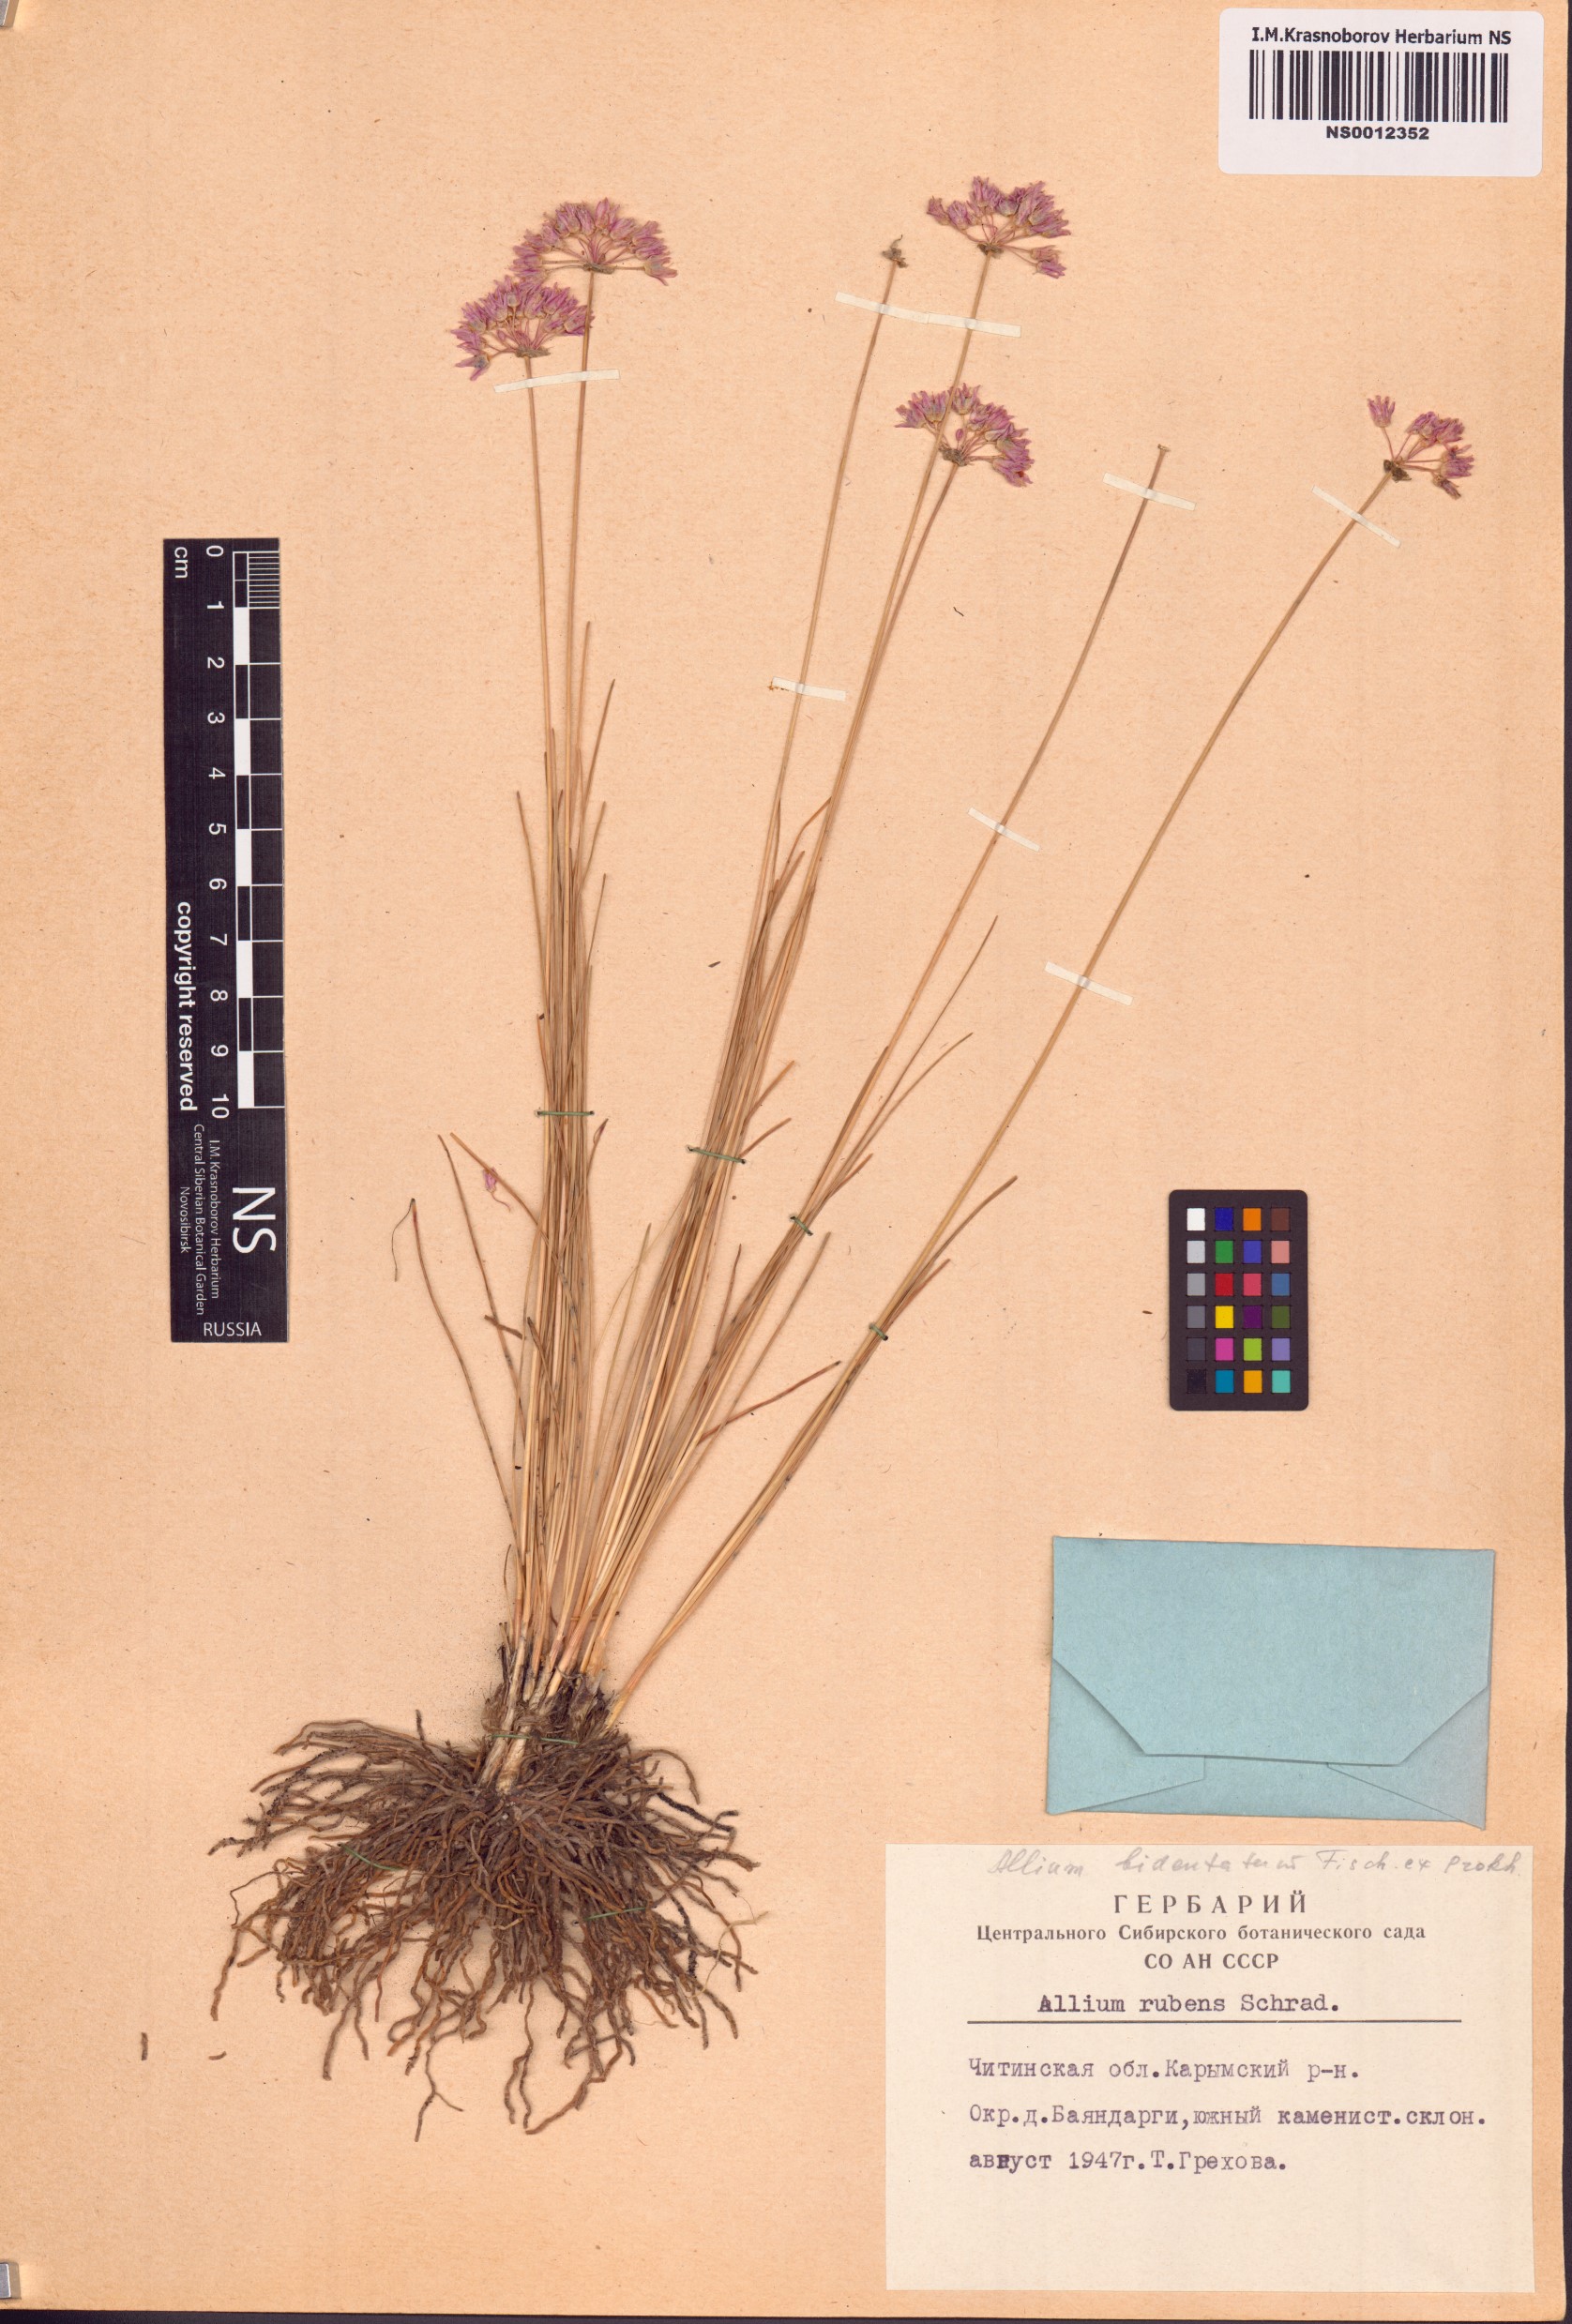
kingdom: Plantae
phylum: Tracheophyta
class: Liliopsida
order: Asparagales
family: Amaryllidaceae
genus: Allium
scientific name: Allium bidentatum
